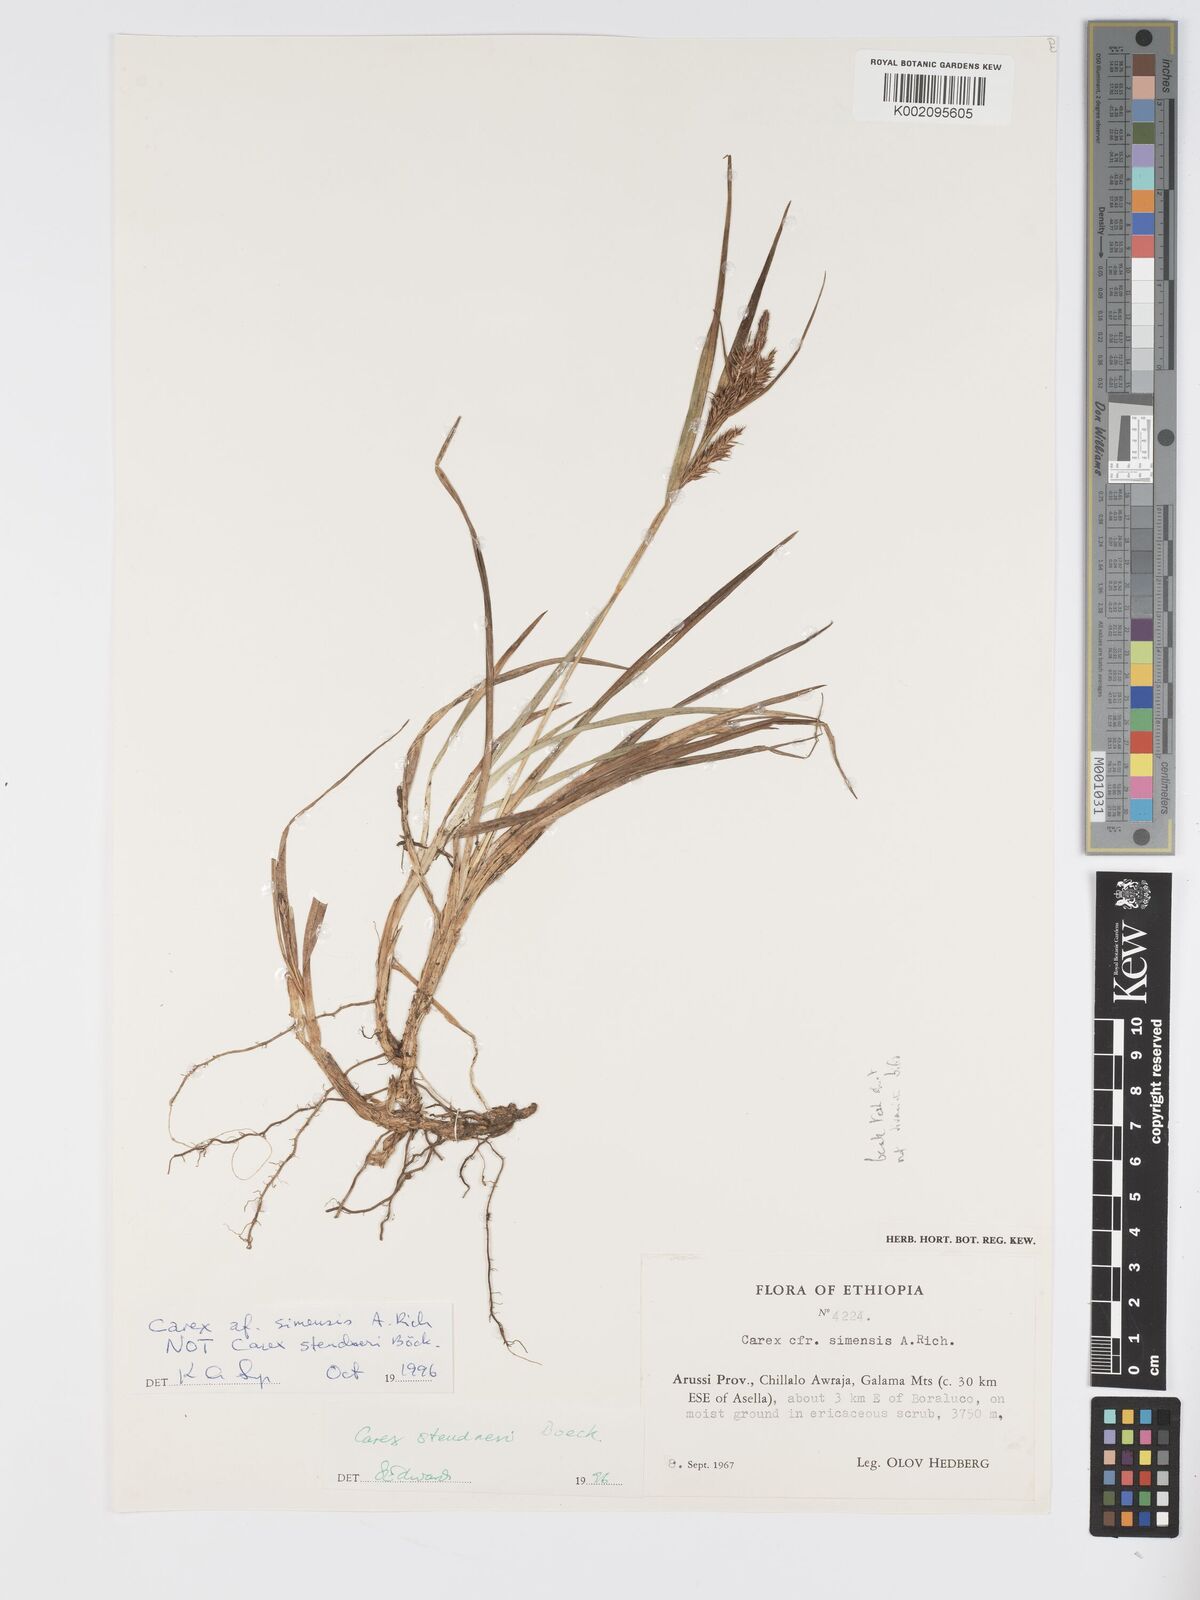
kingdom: Plantae
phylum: Tracheophyta
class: Liliopsida
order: Poales
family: Cyperaceae
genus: Carex
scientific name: Carex steudneri
